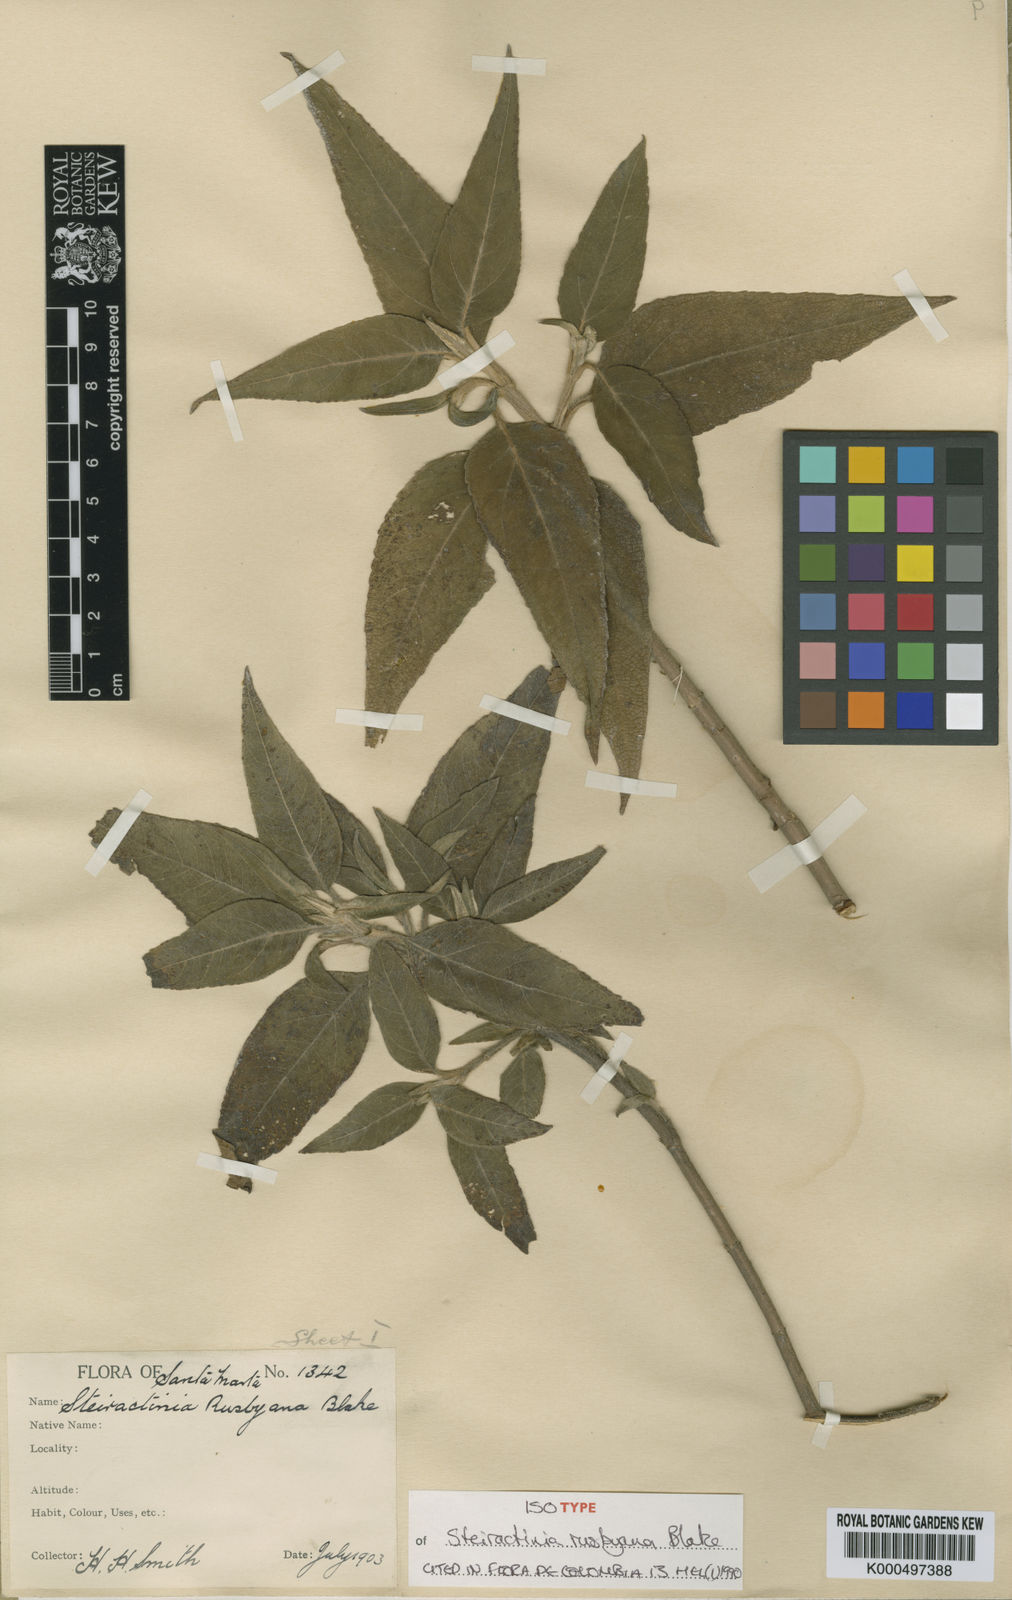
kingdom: Plantae
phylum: Tracheophyta
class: Magnoliopsida
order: Asterales
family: Asteraceae
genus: Steiractinia
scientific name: Steiractinia rusbyana
